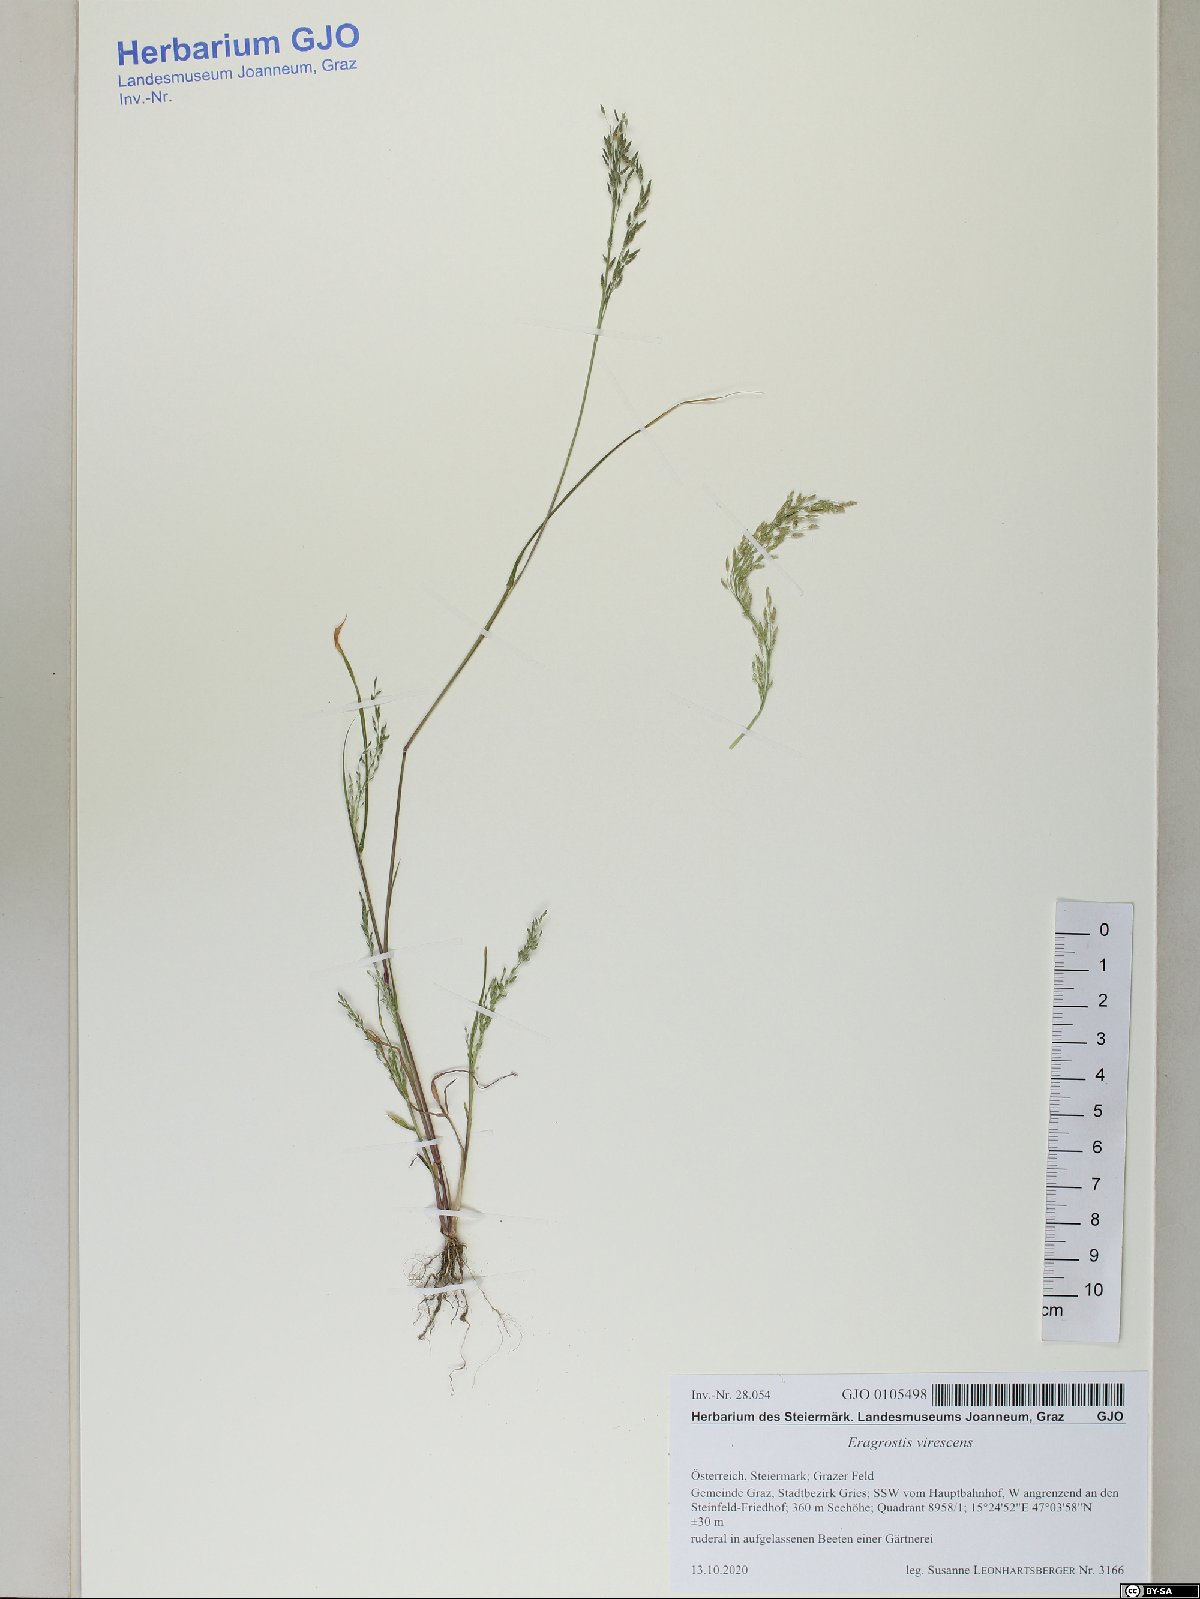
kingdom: Plantae
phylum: Tracheophyta
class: Liliopsida
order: Poales
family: Poaceae
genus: Eragrostis
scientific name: Eragrostis virescens
